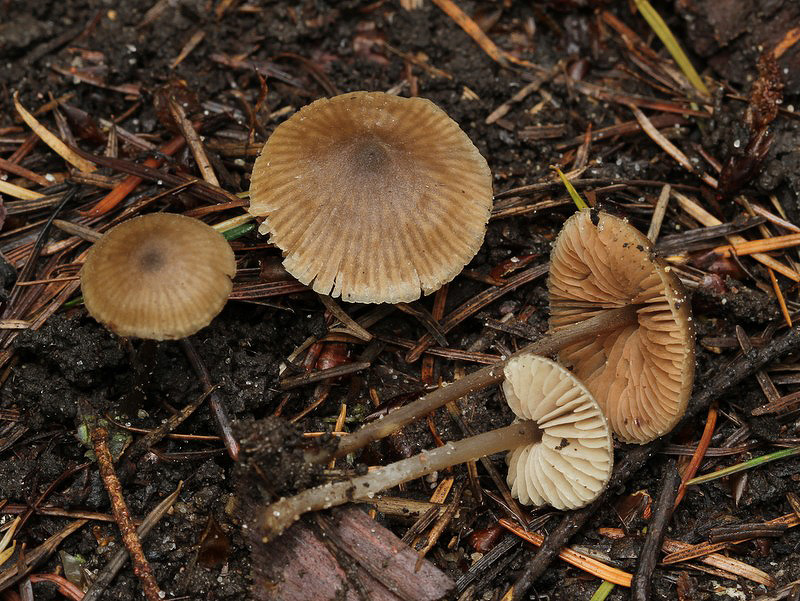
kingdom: Fungi
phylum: Basidiomycota
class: Agaricomycetes
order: Agaricales
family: Entolomataceae
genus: Entoloma
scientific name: Entoloma lucidum
